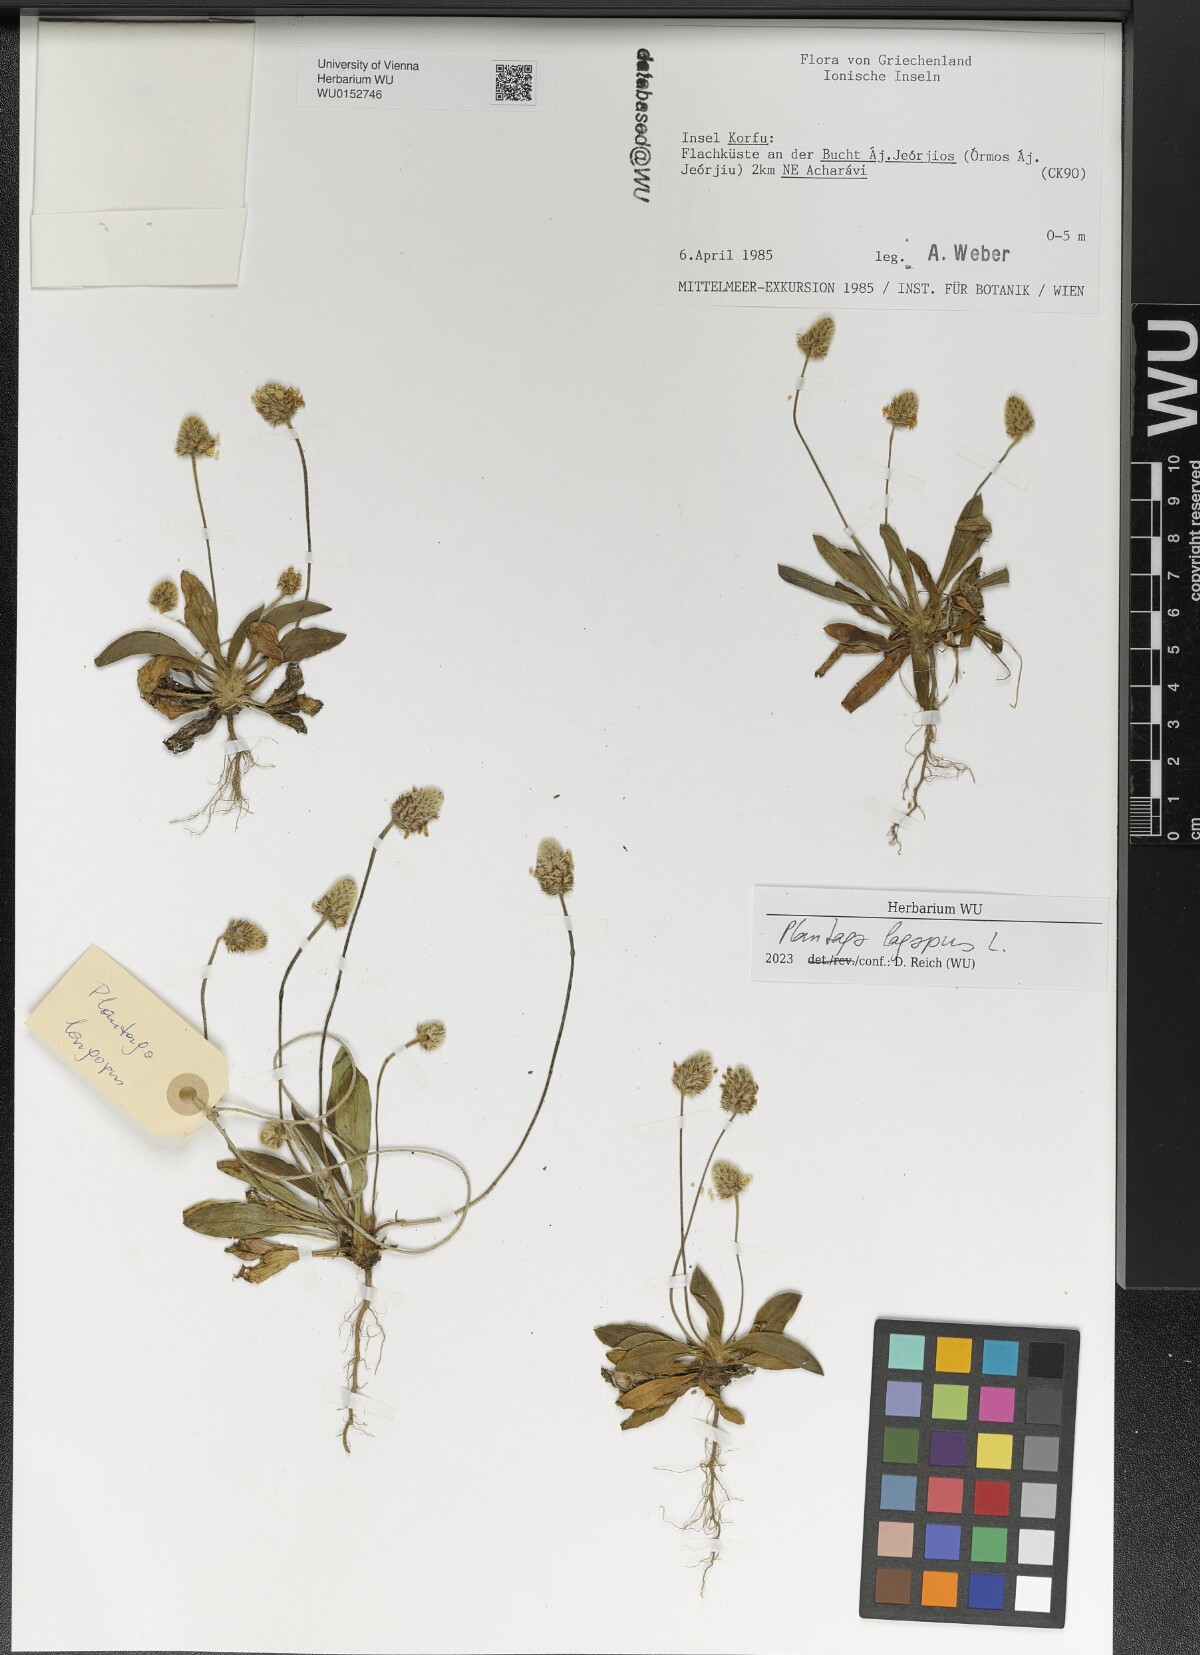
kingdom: Plantae
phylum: Tracheophyta
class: Magnoliopsida
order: Lamiales
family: Plantaginaceae
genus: Plantago
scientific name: Plantago lagopus
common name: Hare-foot plantain
